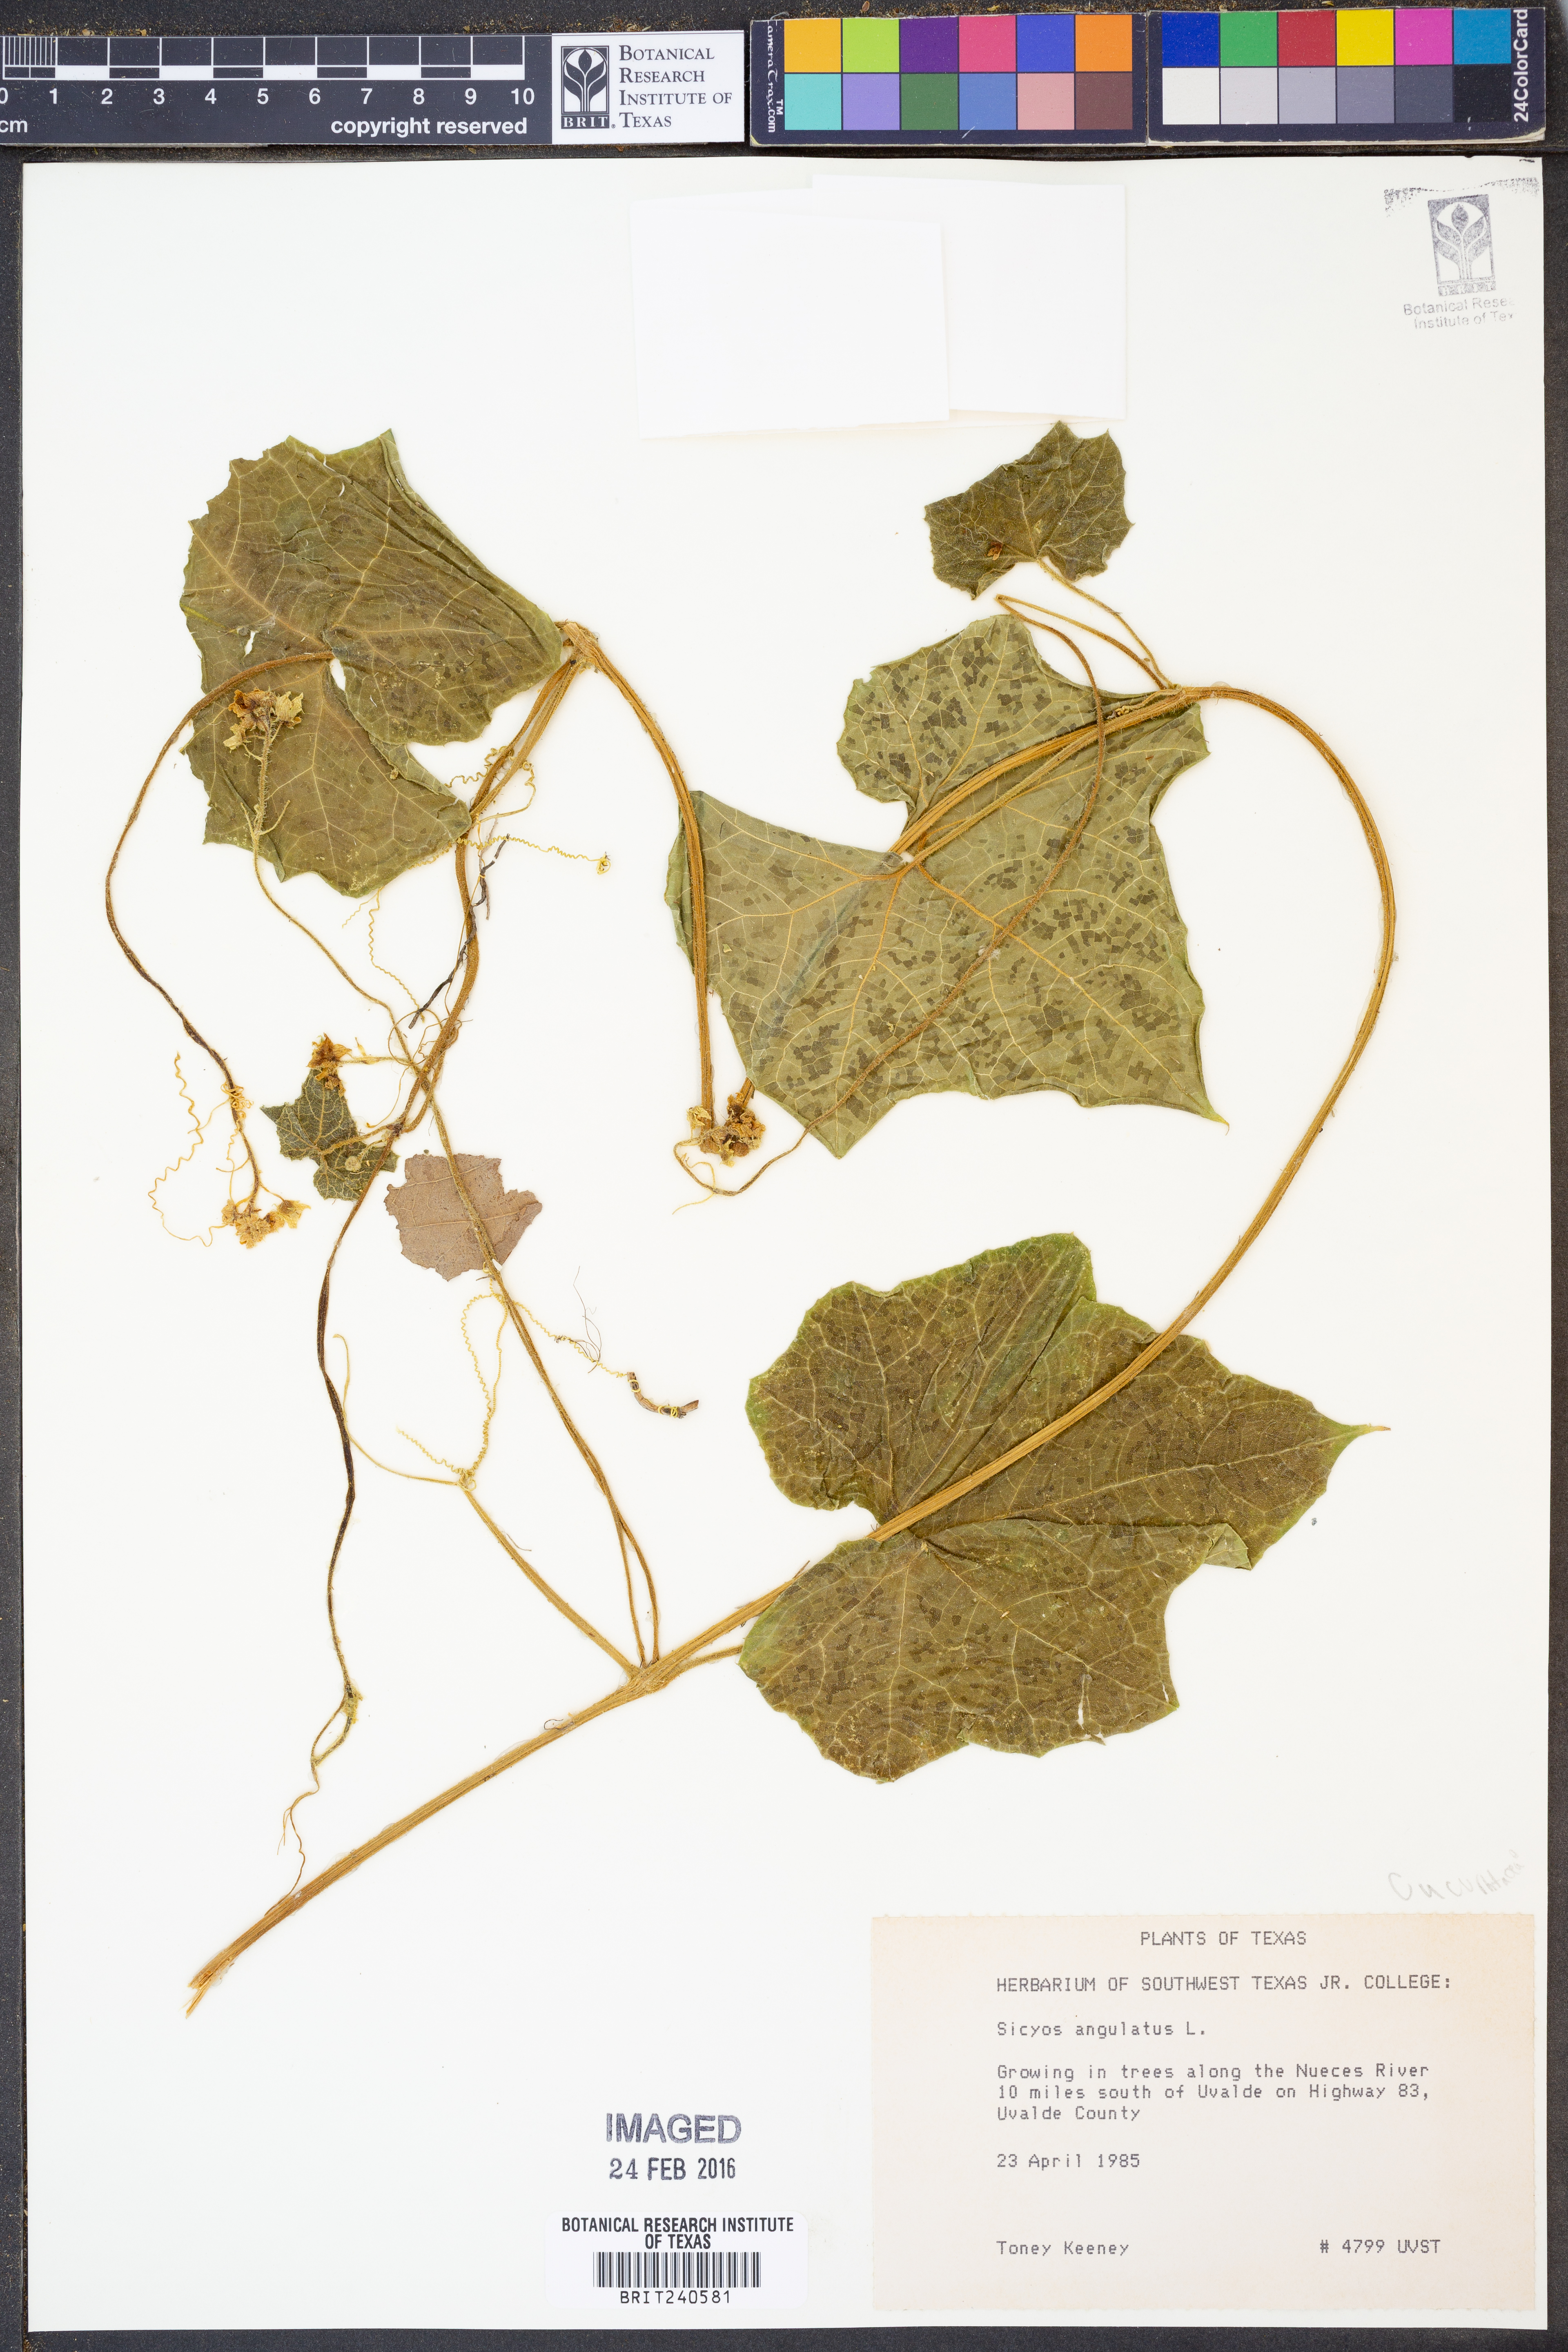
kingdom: Plantae
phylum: Tracheophyta
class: Magnoliopsida
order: Cucurbitales
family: Cucurbitaceae
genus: Sicyos
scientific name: Sicyos angulatus
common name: Angled burr cucumber
